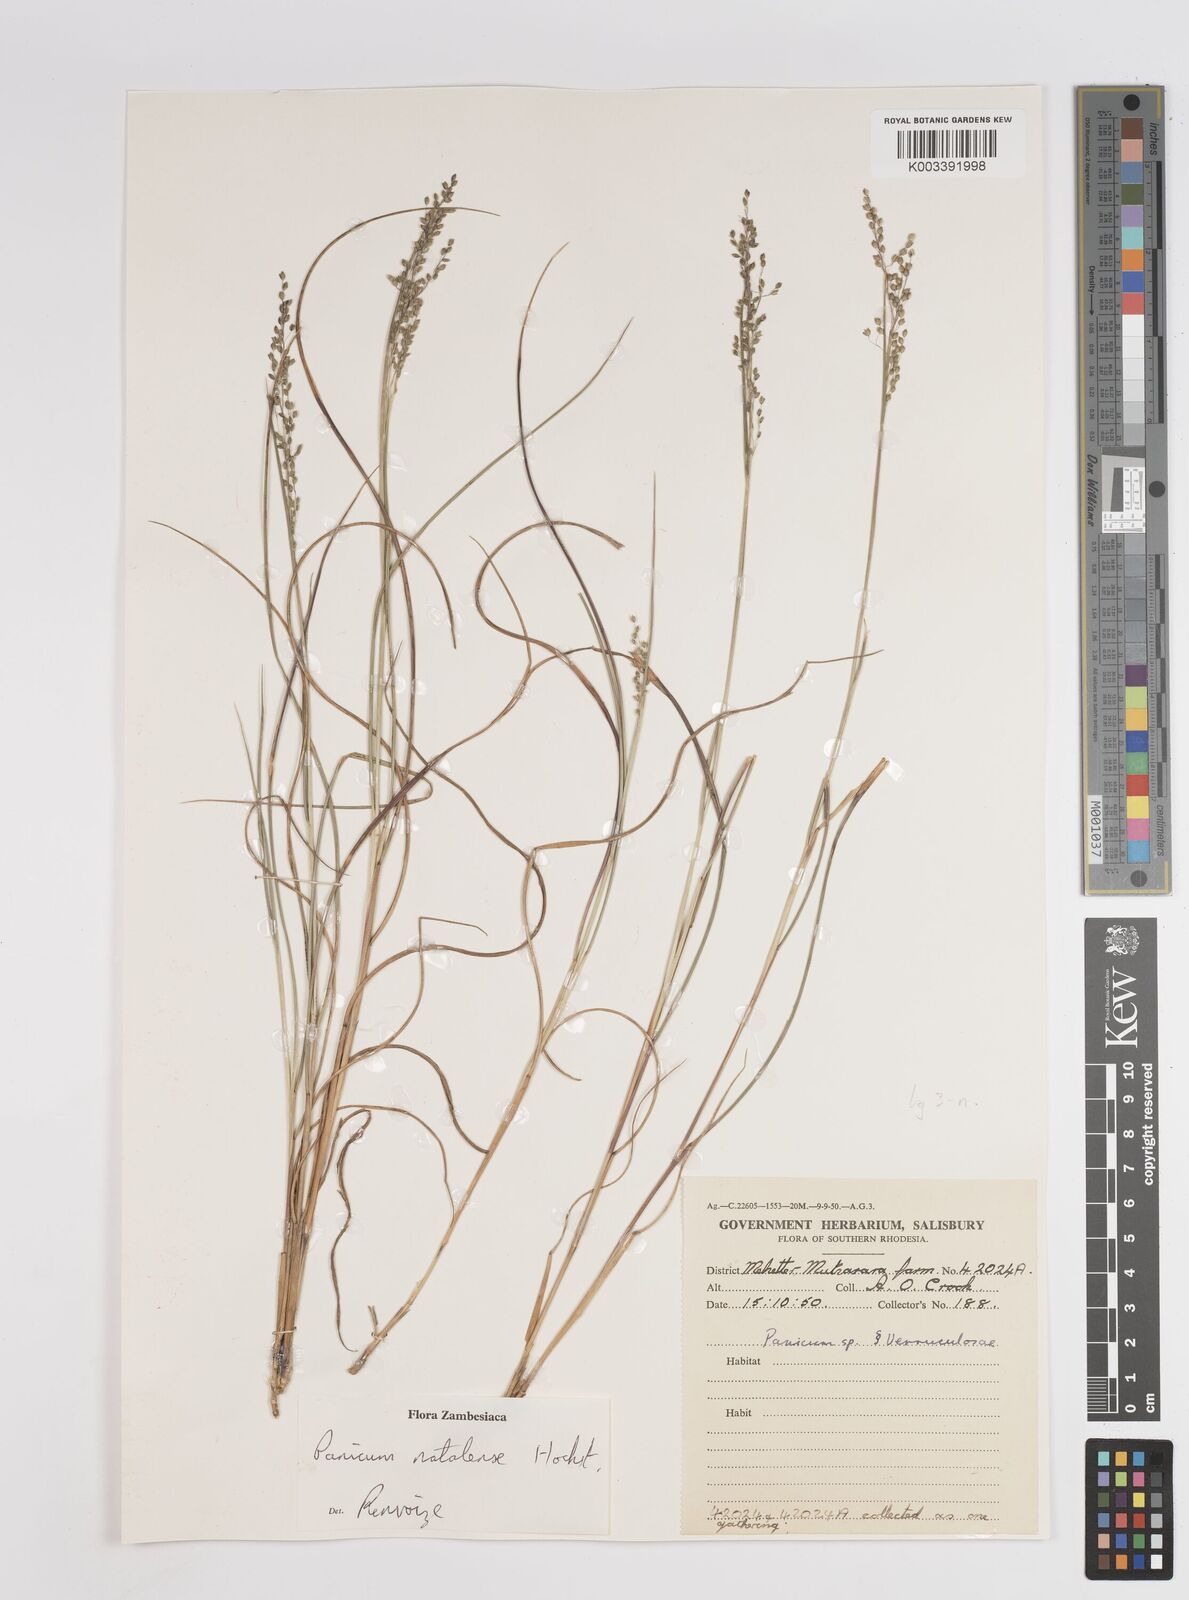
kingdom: Plantae
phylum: Tracheophyta
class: Liliopsida
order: Poales
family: Poaceae
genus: Trichanthecium
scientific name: Trichanthecium natalense
